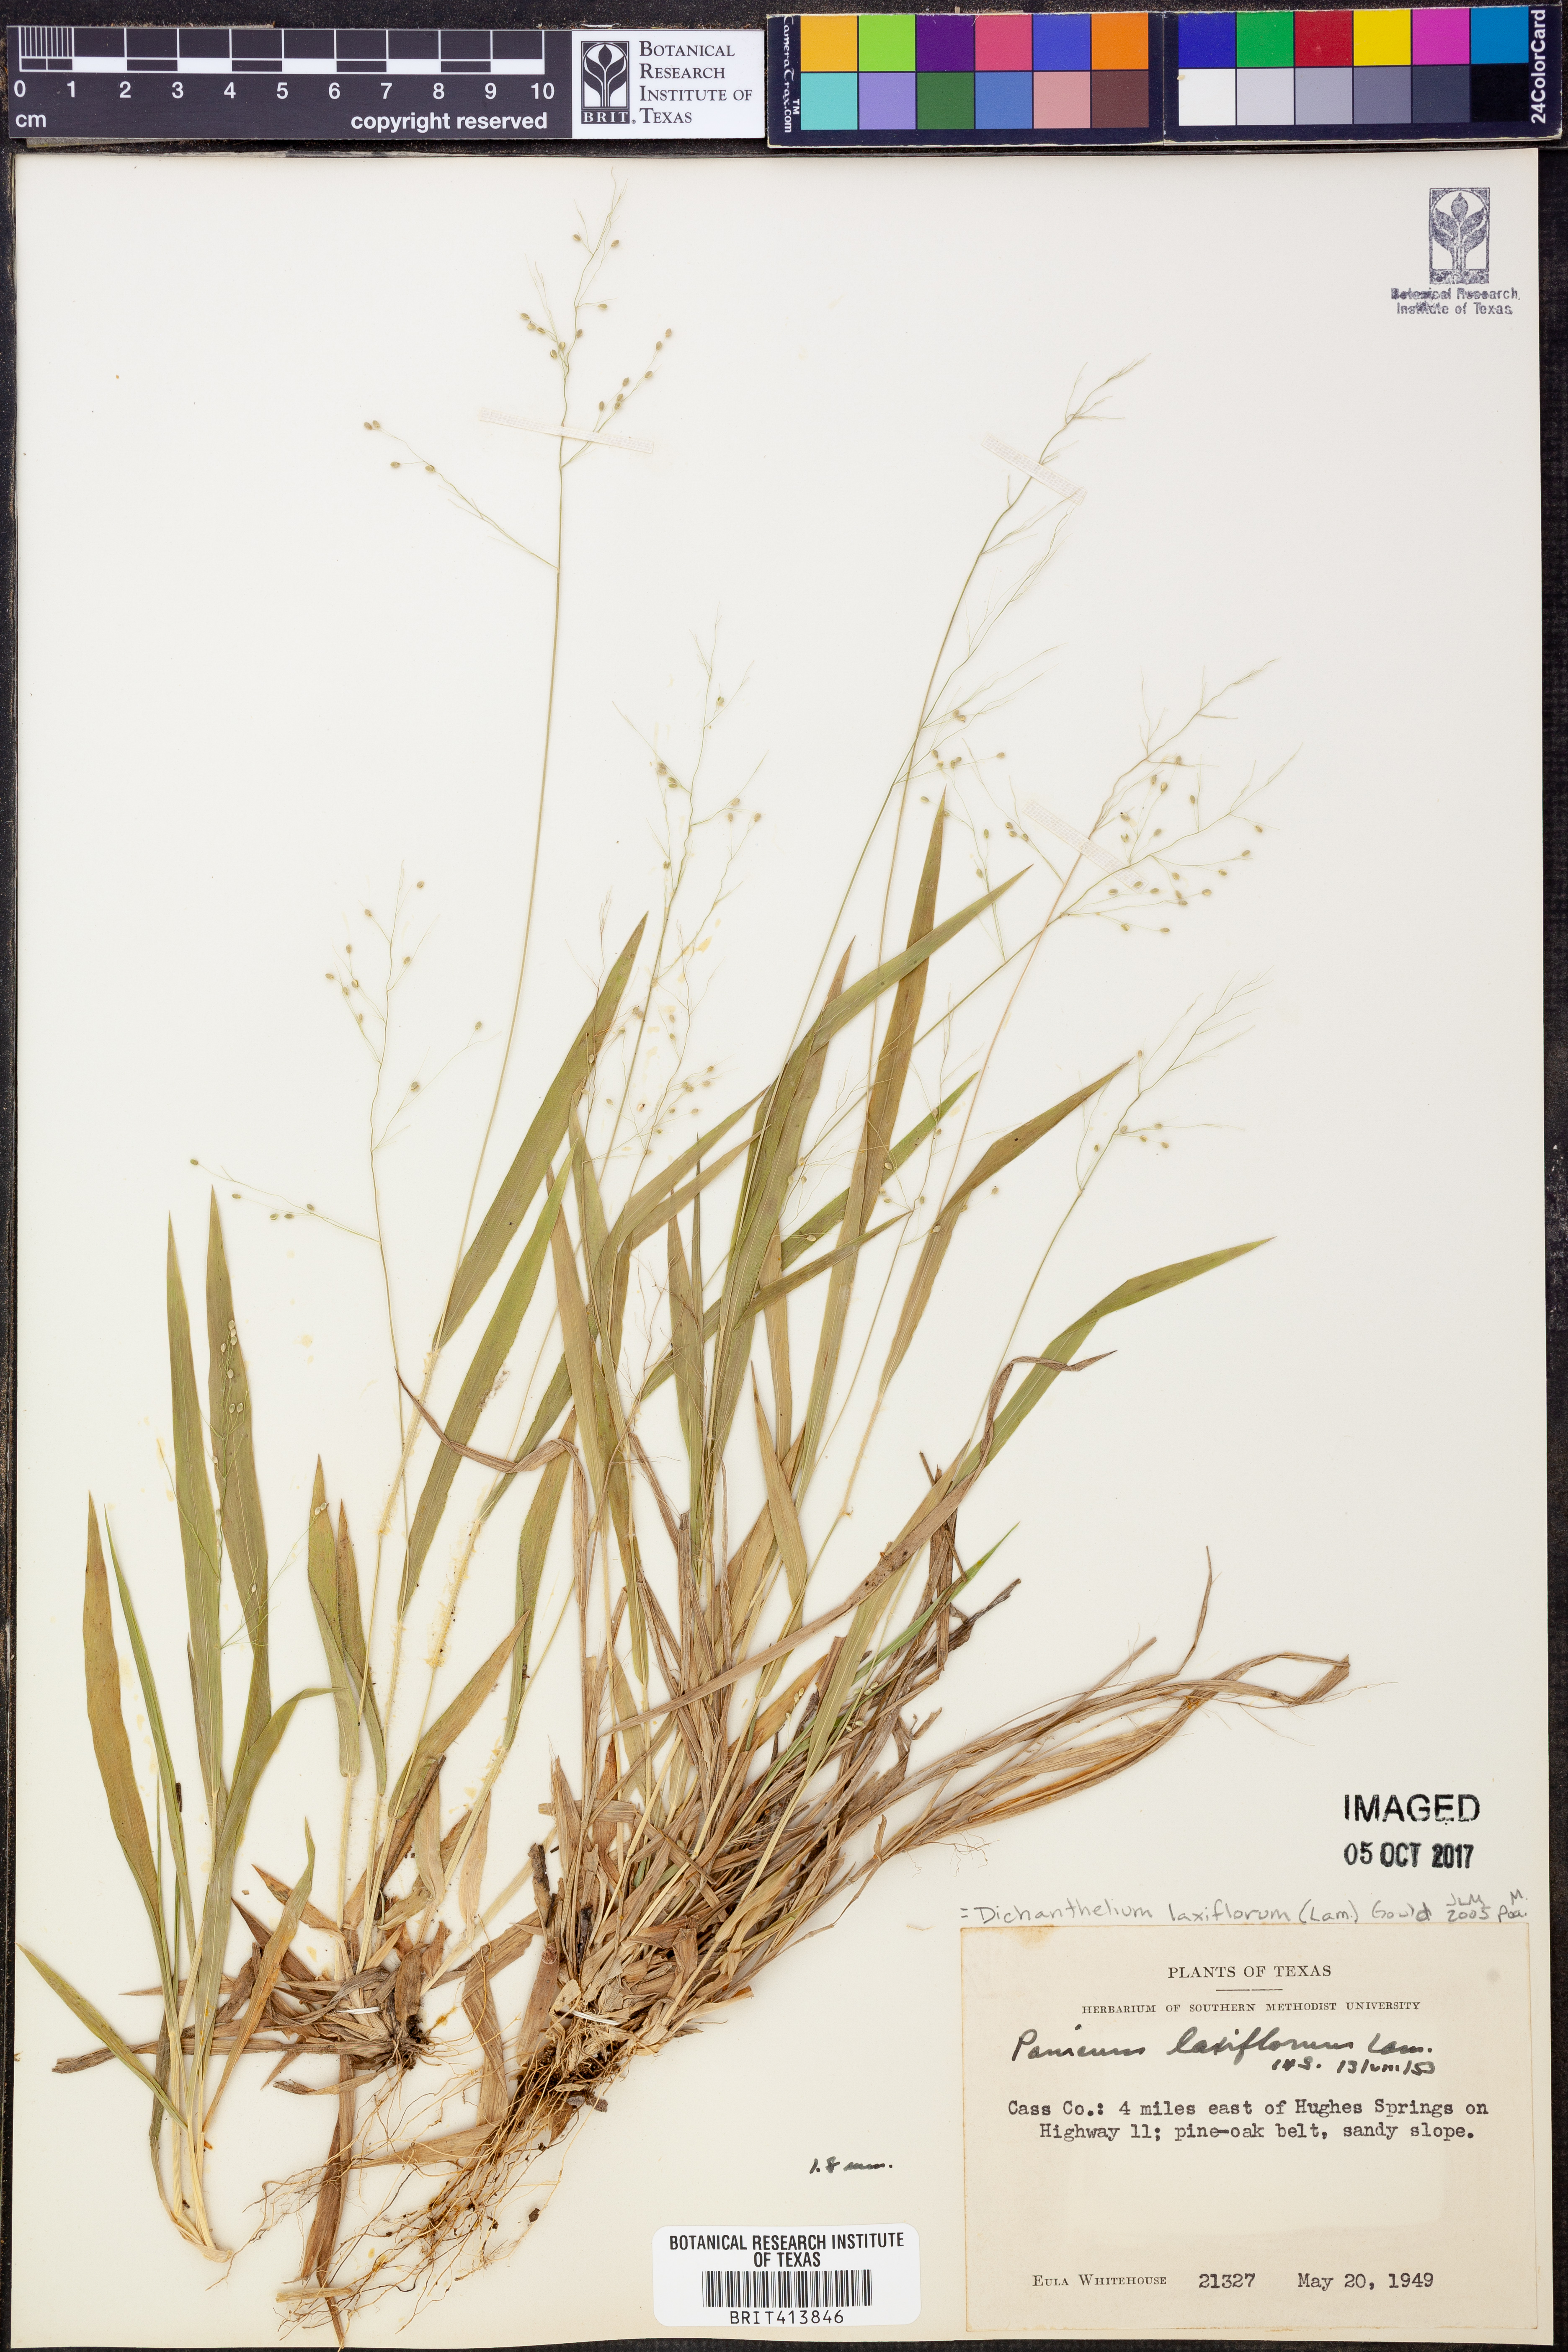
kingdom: Plantae
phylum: Tracheophyta
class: Liliopsida
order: Poales
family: Poaceae
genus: Dichanthelium
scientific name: Dichanthelium laxiflorum
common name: Soft-tuft panic grass
